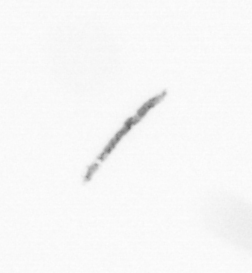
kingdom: Chromista
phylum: Ochrophyta
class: Bacillariophyceae
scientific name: Bacillariophyceae
